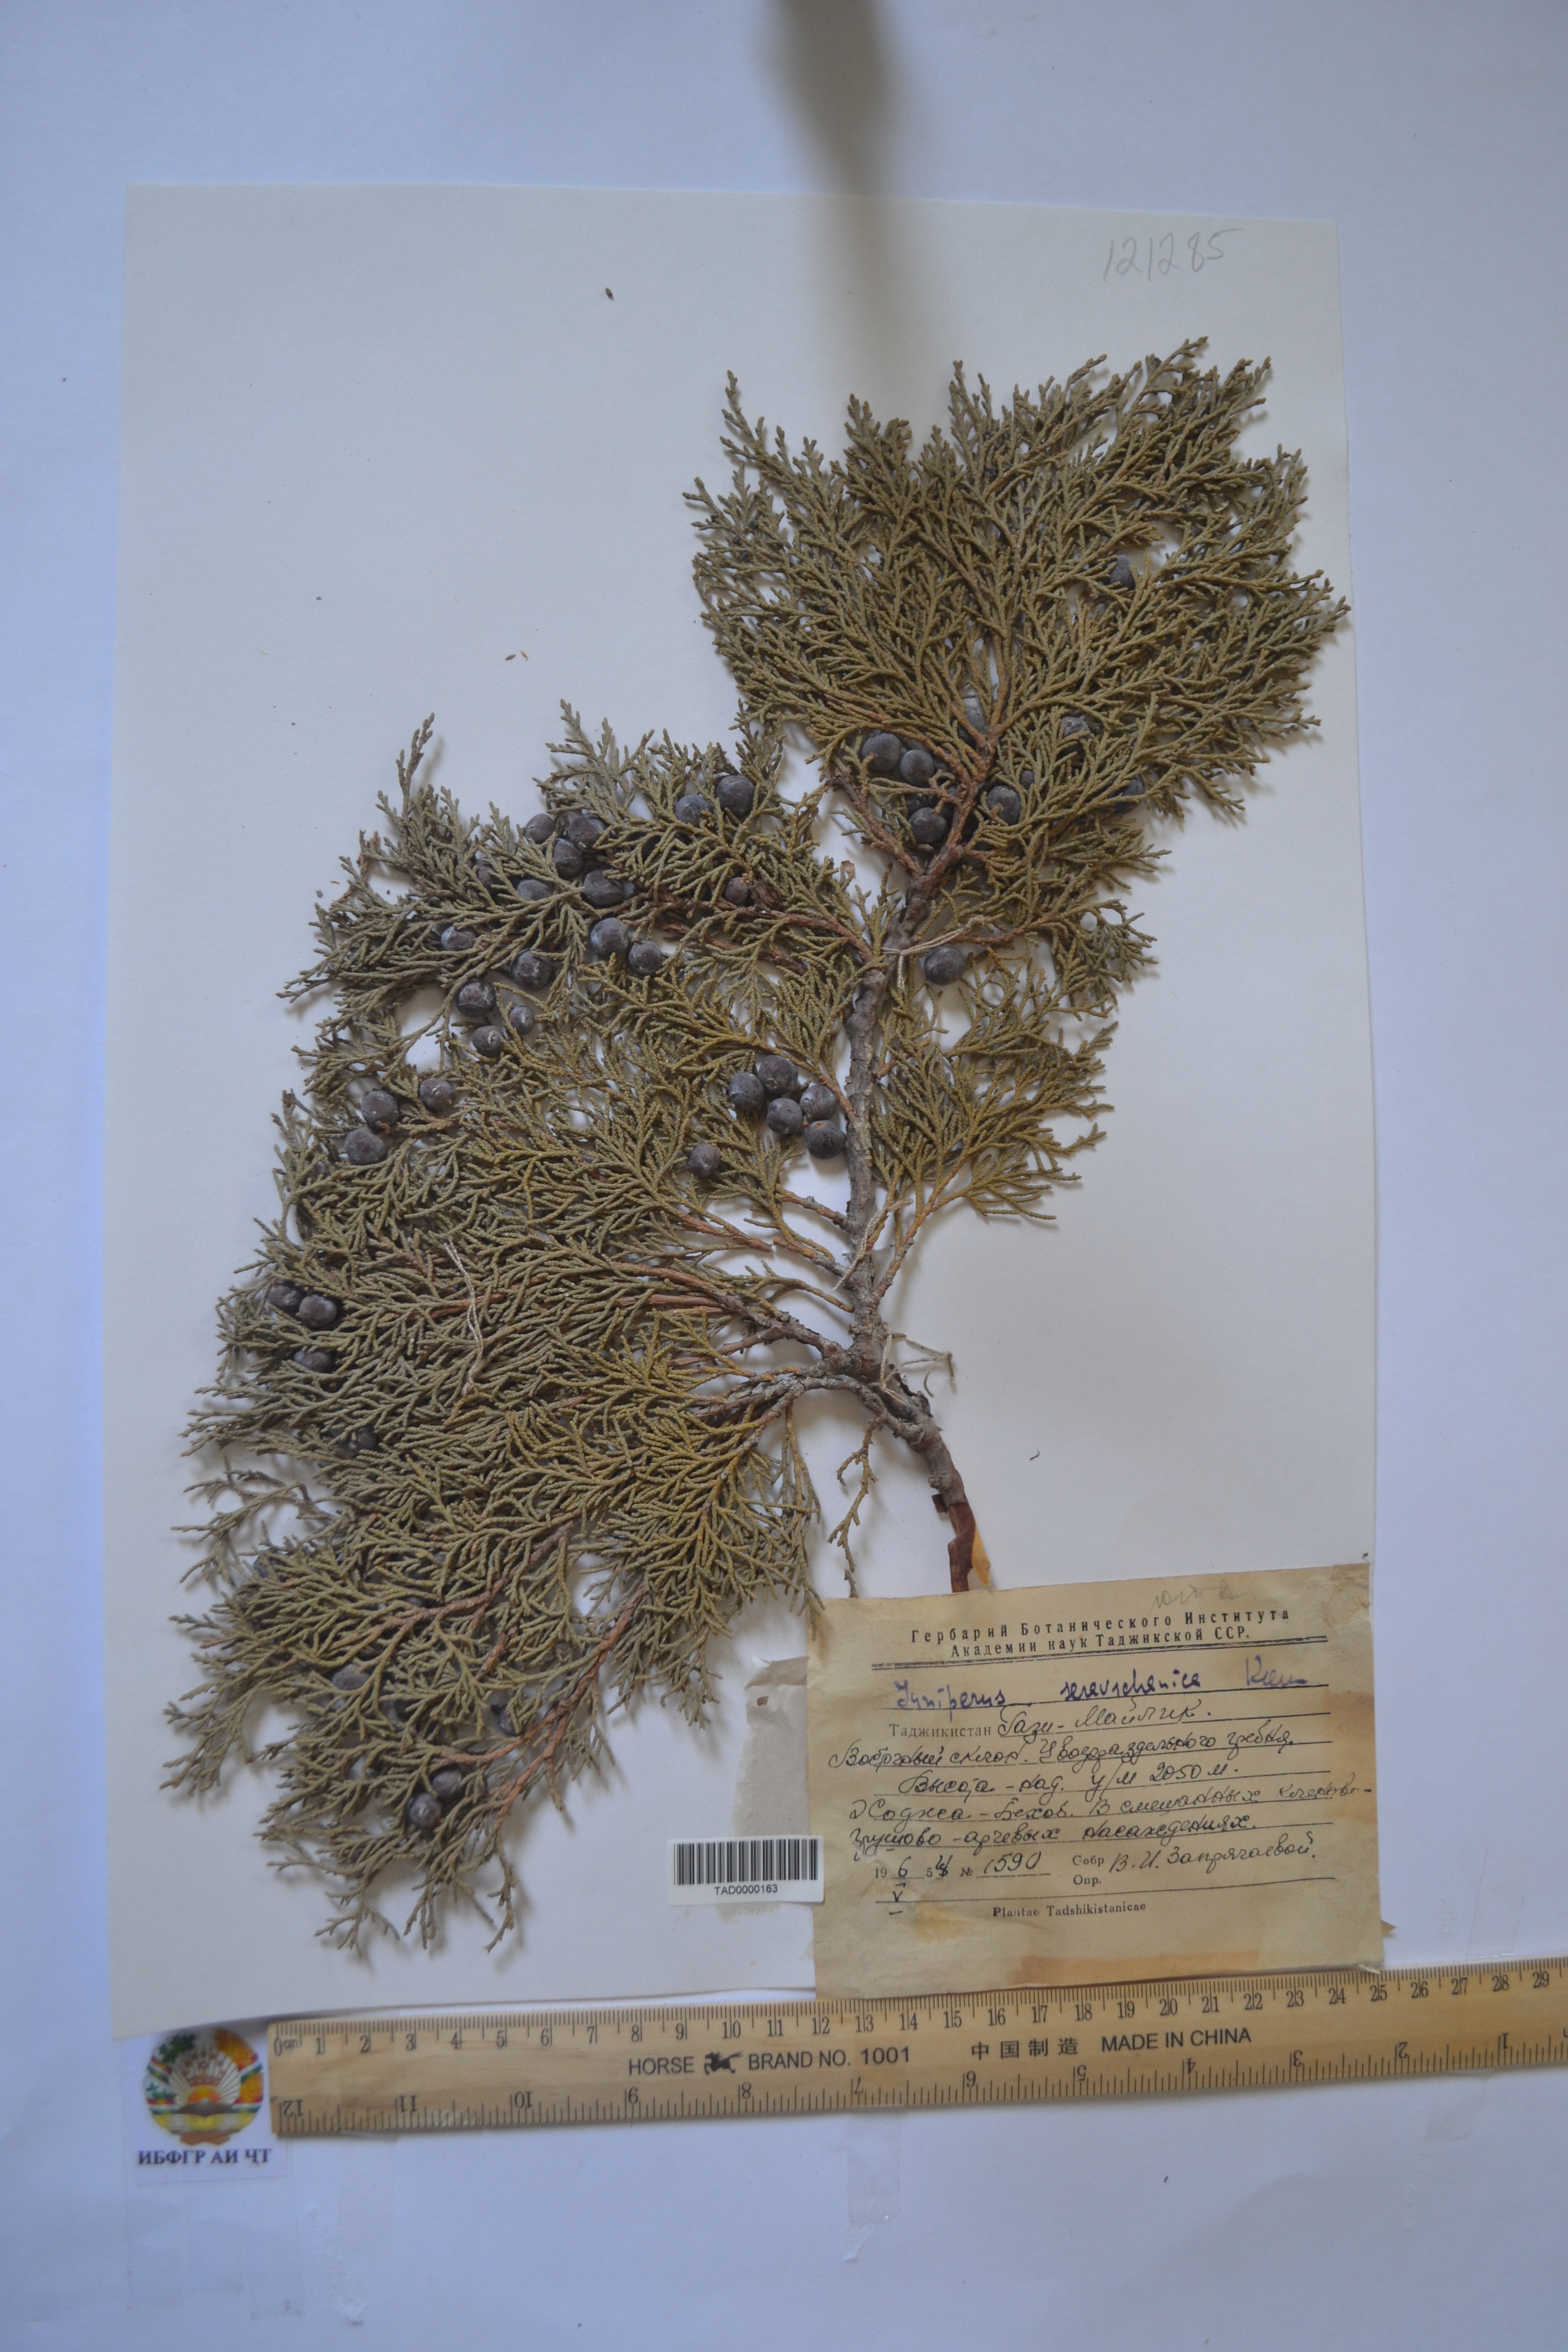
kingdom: Plantae
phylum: Tracheophyta
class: Pinopsida
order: Pinales
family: Cupressaceae
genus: Juniperus
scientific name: Juniperus excelsa
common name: Crimean juniper
